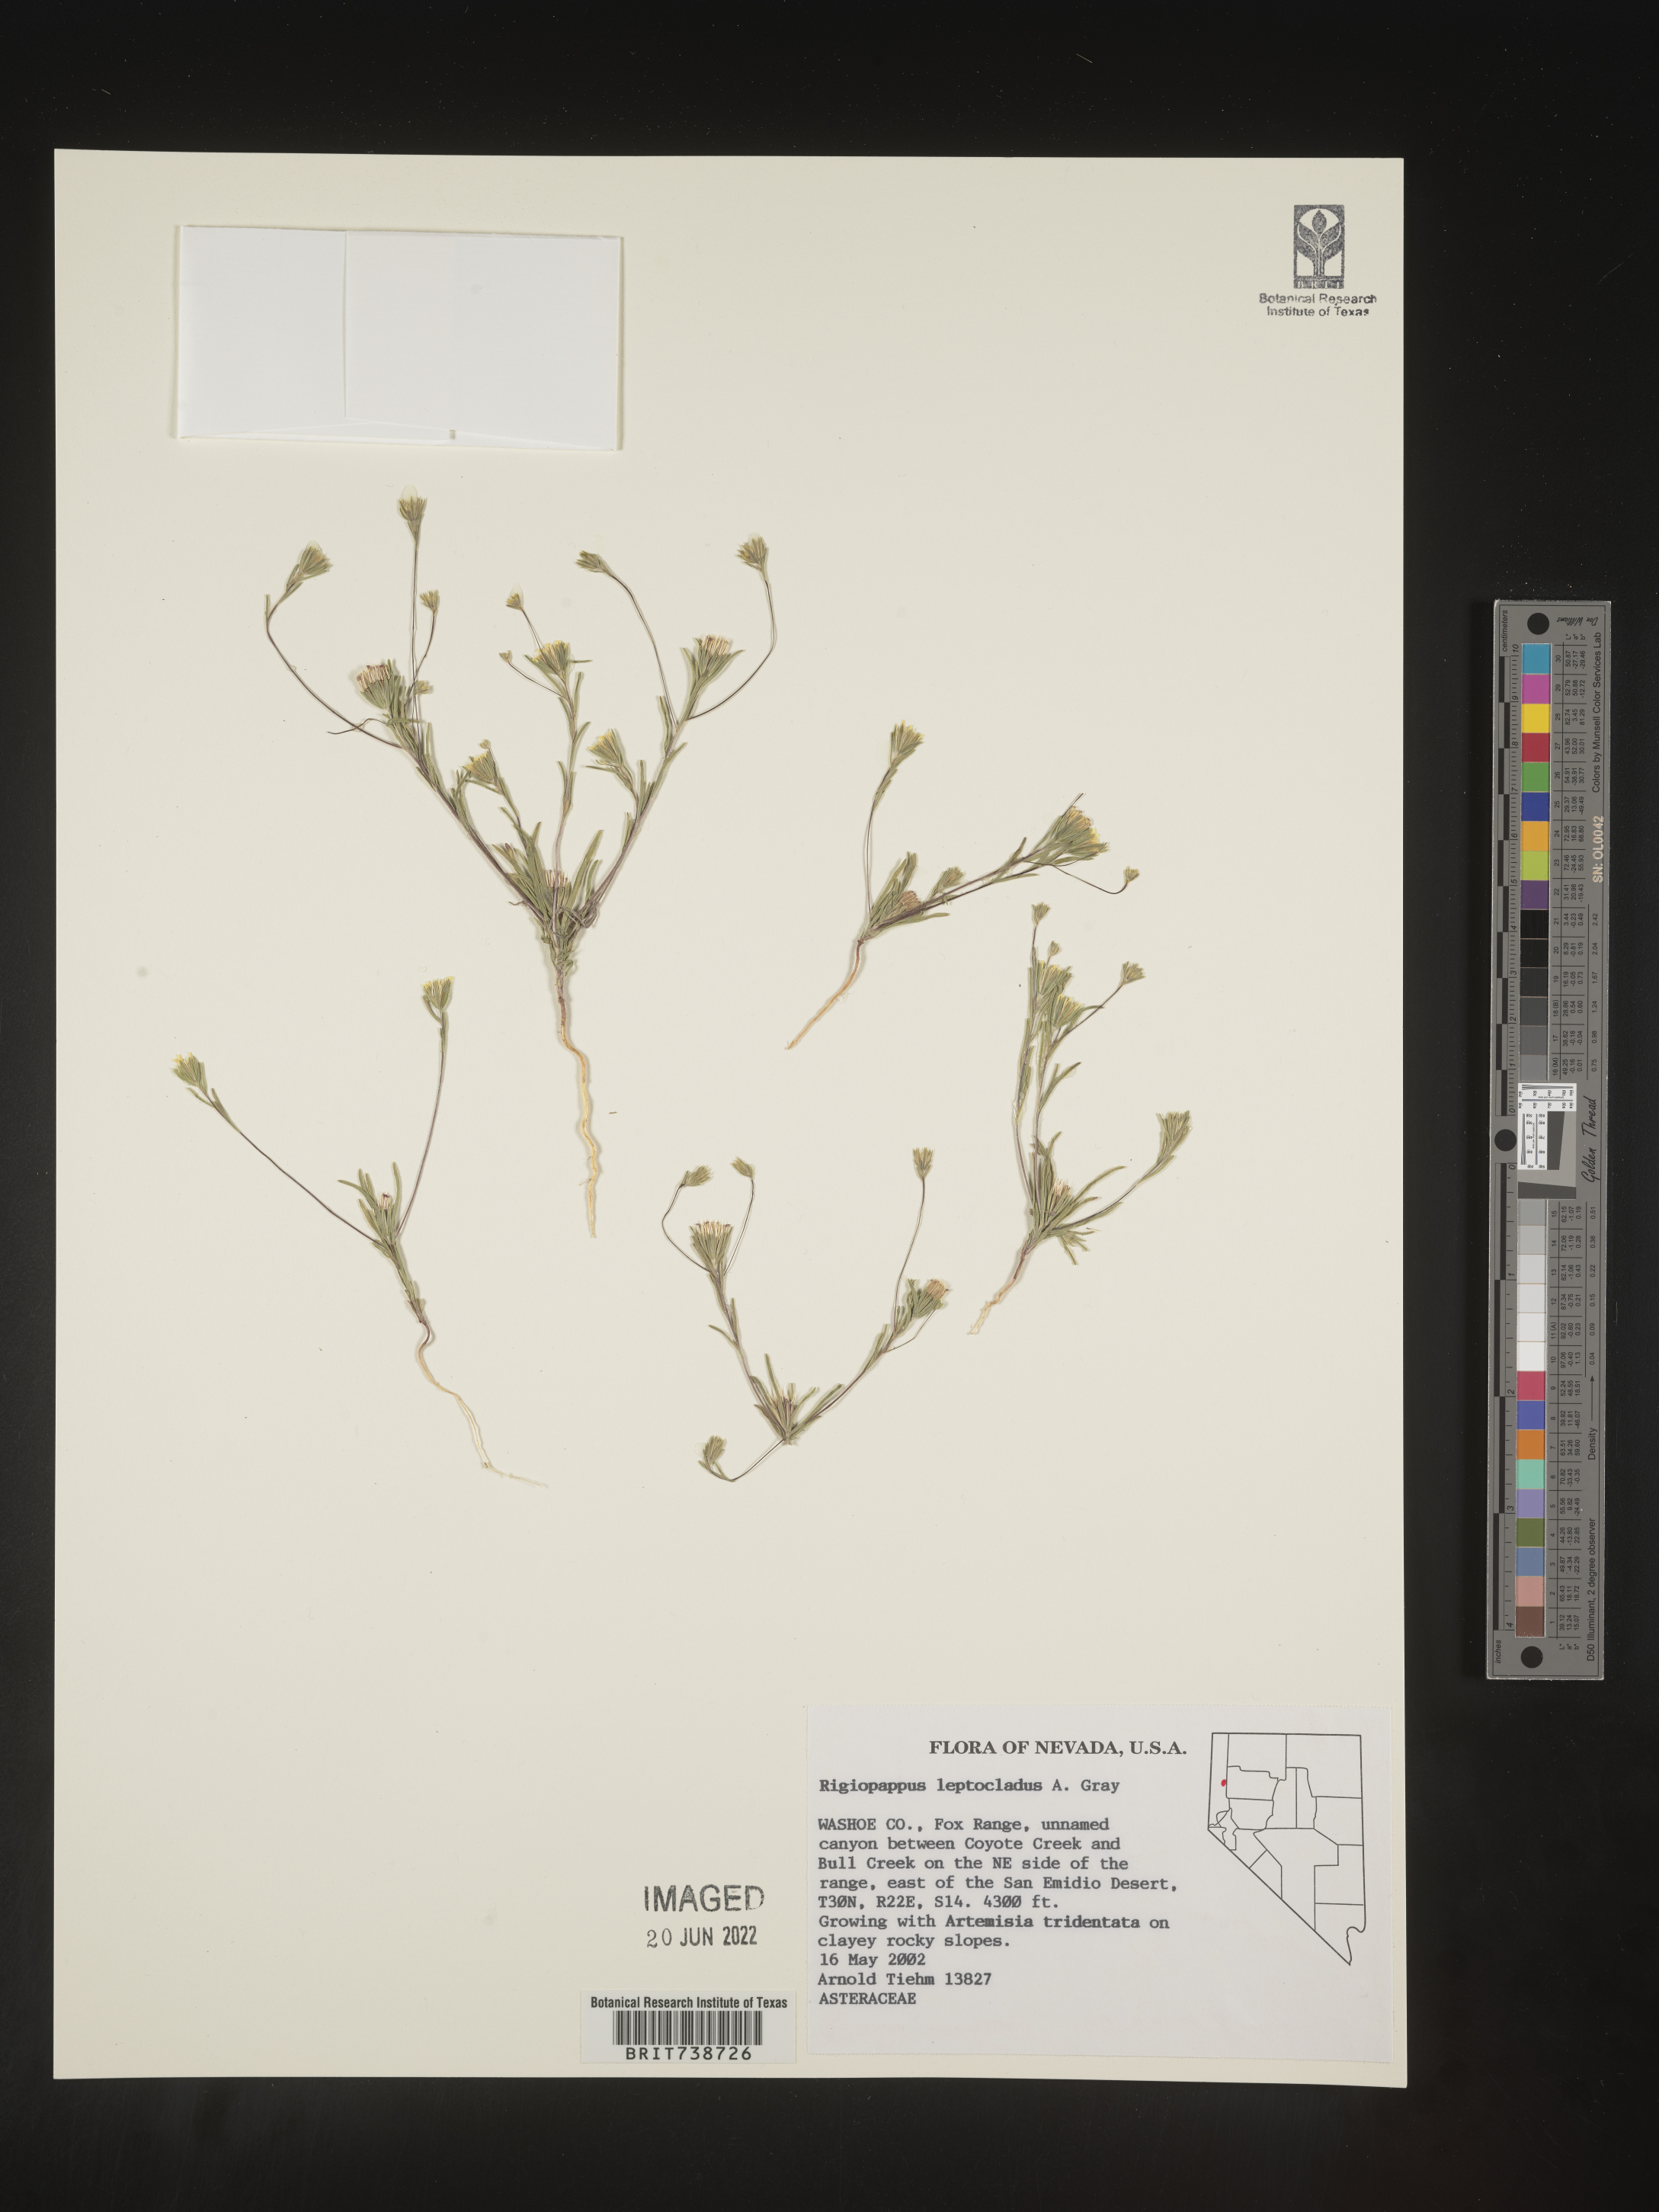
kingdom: Plantae
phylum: Tracheophyta
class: Magnoliopsida
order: Asterales
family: Asteraceae
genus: Rigiopappus
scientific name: Rigiopappus
